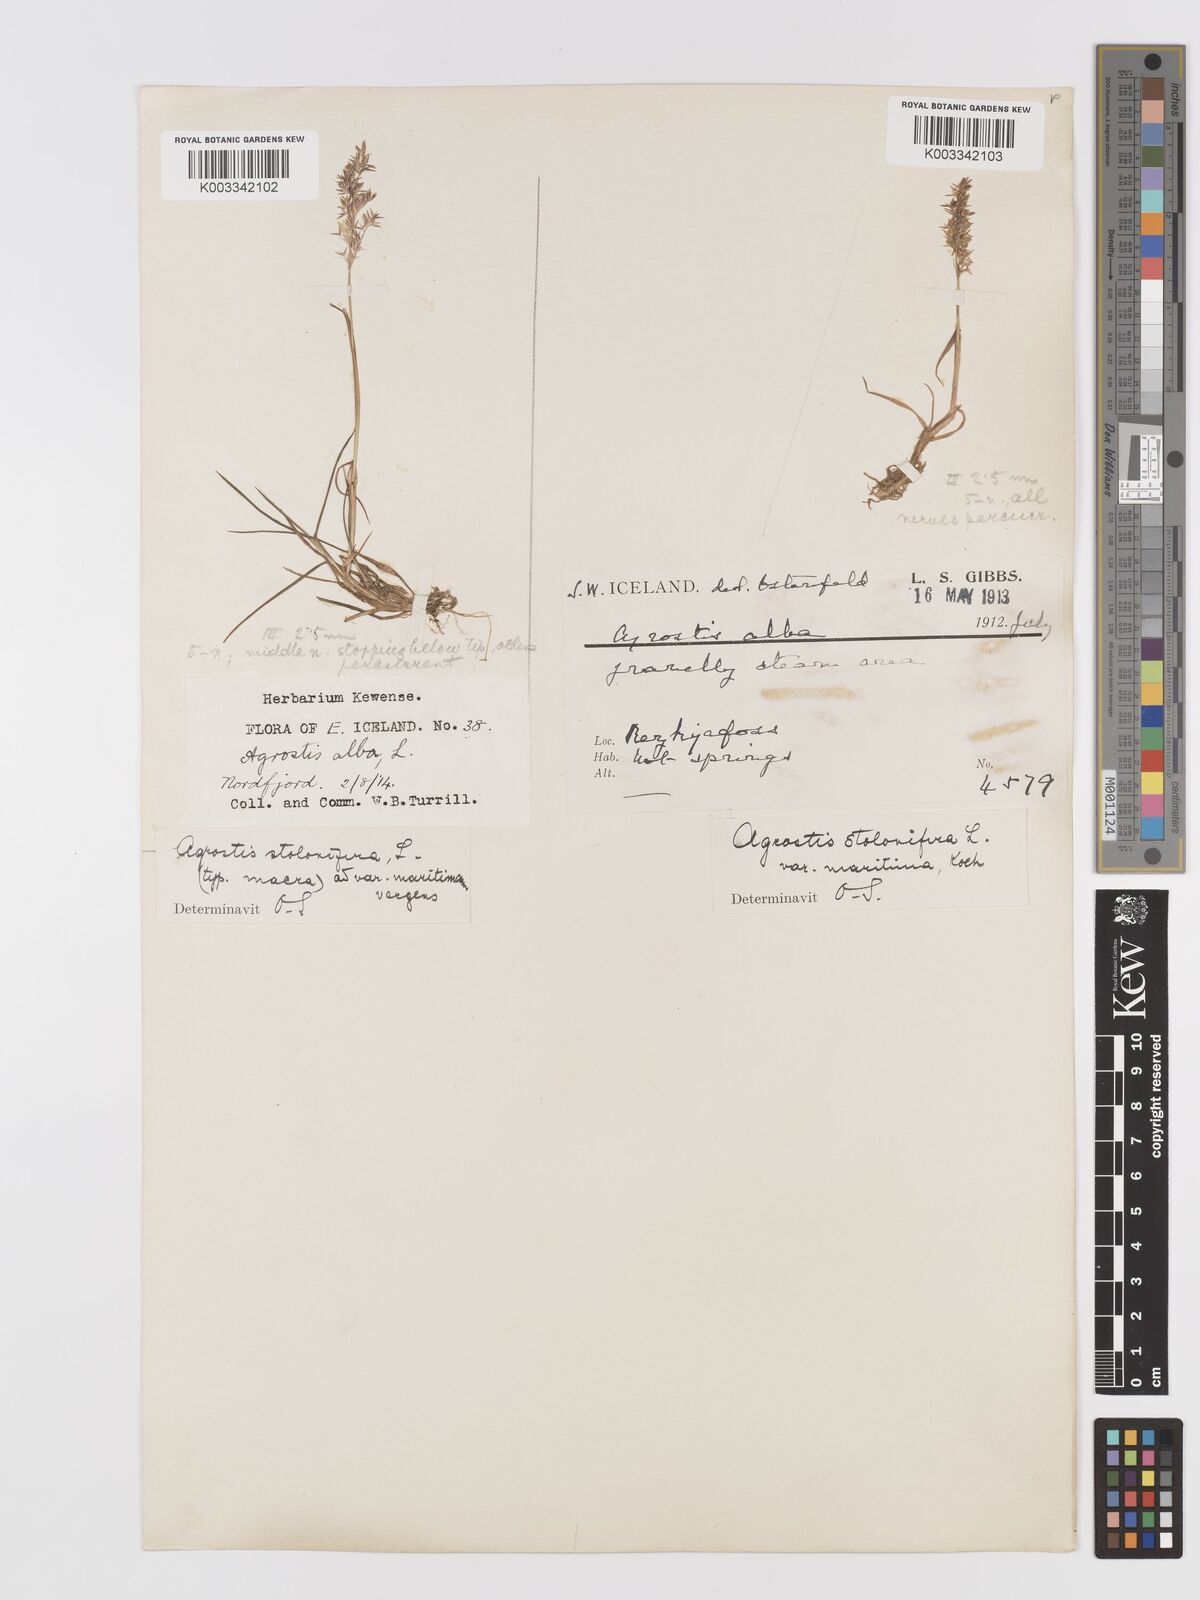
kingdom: Plantae
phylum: Tracheophyta
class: Liliopsida
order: Poales
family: Poaceae
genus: Agrostis
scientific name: Agrostis stolonifera
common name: Creeping bentgrass
